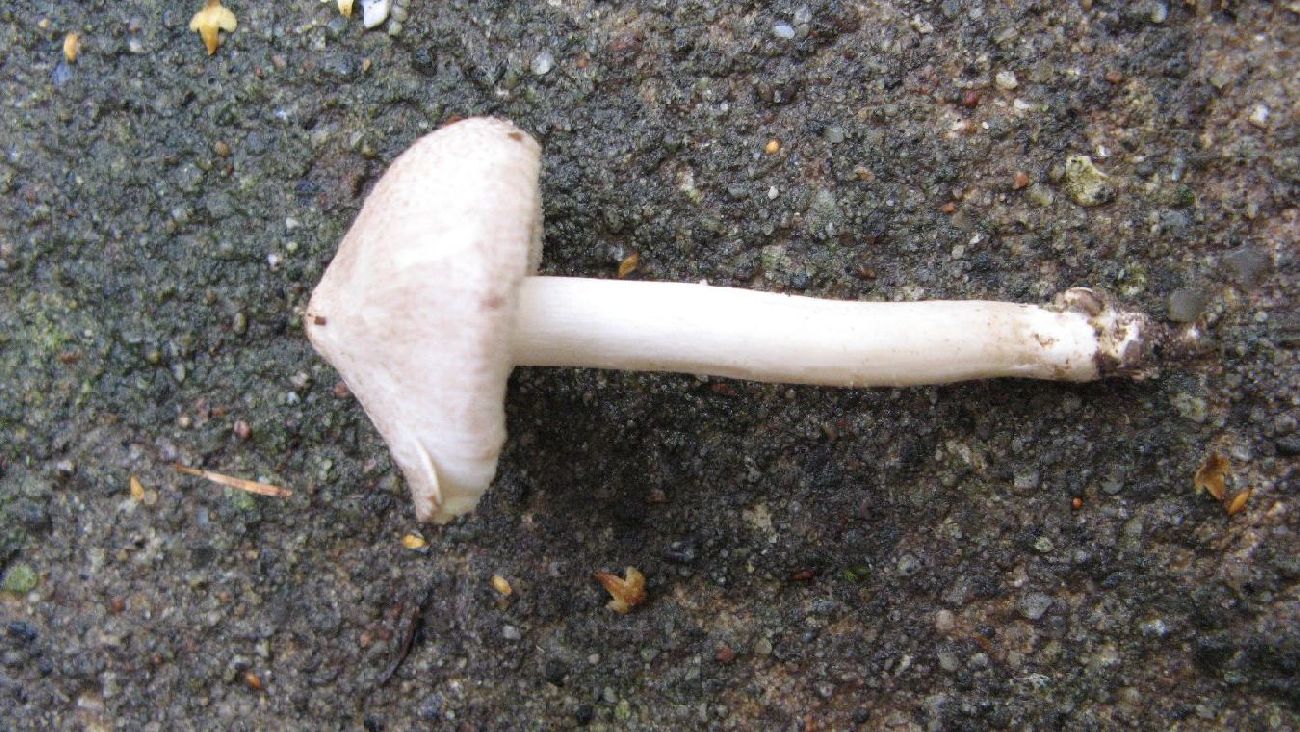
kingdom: Fungi
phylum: Basidiomycota
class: Agaricomycetes
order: Agaricales
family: Tricholomataceae
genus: Tricholoma
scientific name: Tricholoma argyraceum
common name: spids ridderhat
